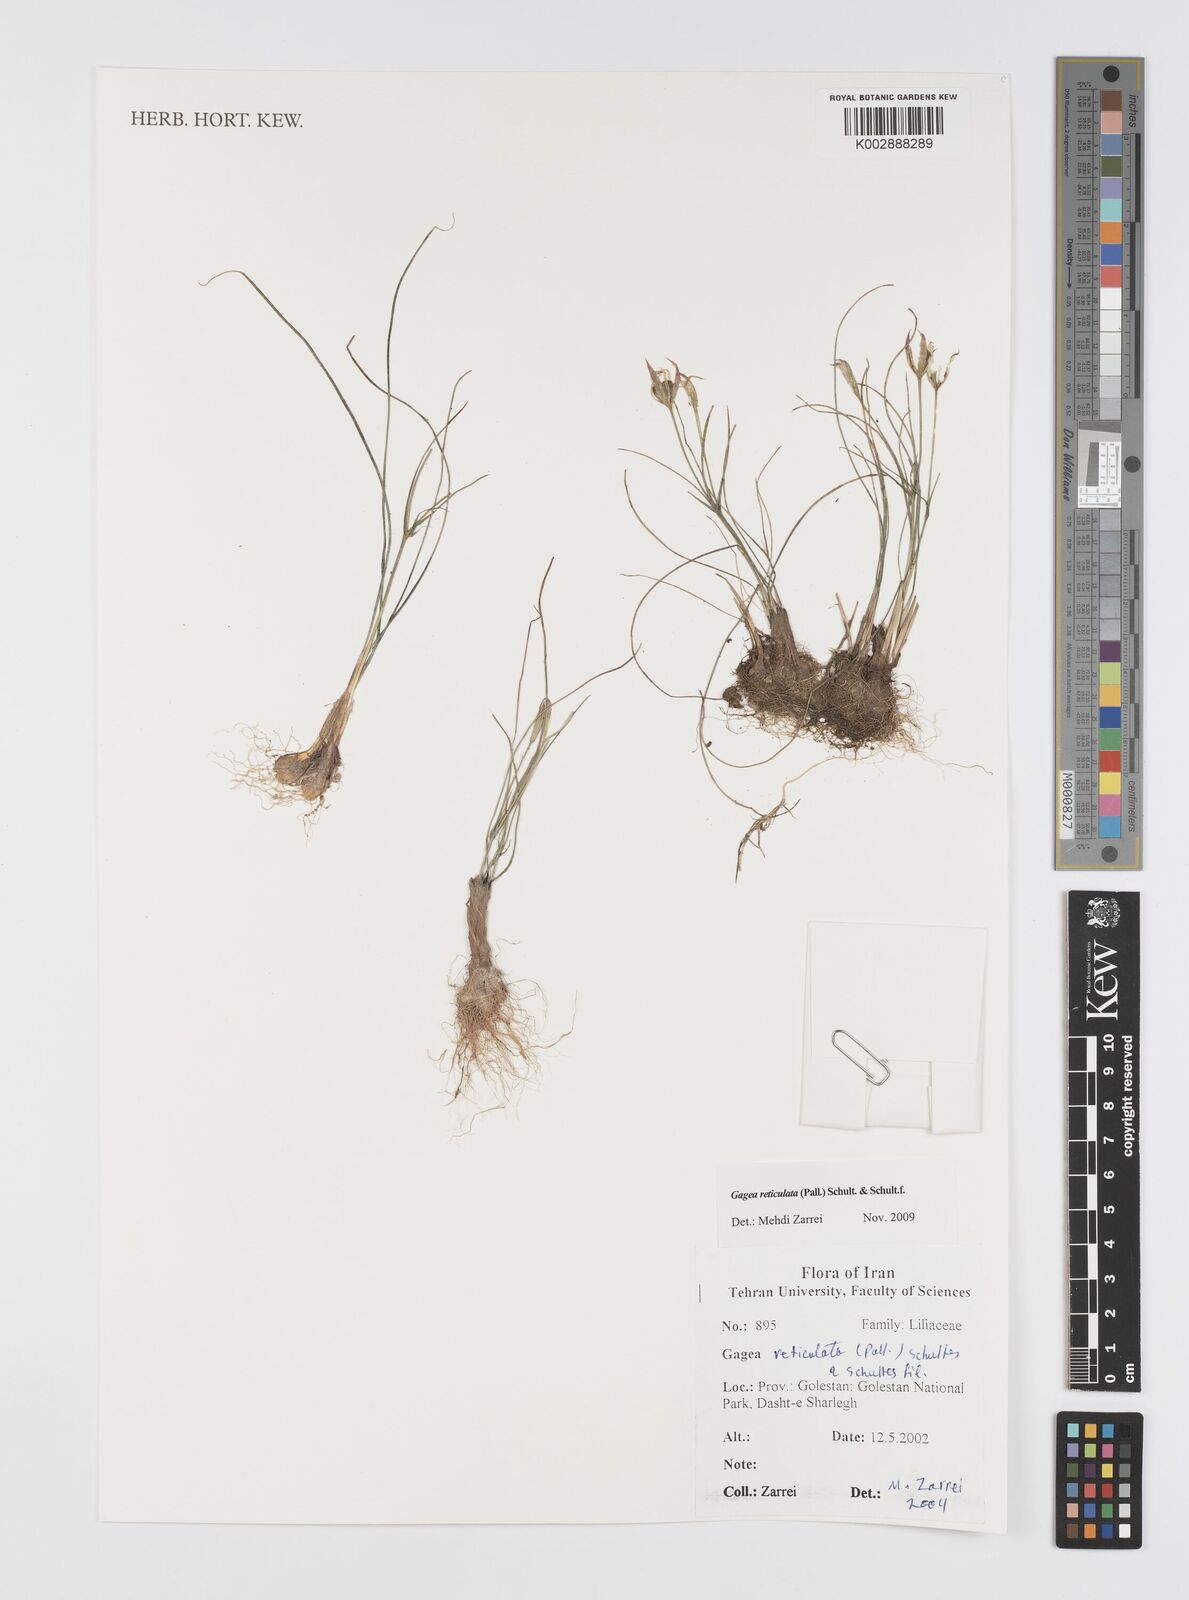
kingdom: Plantae
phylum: Tracheophyta
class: Liliopsida
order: Liliales
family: Liliaceae
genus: Gagea
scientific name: Gagea reticulata
